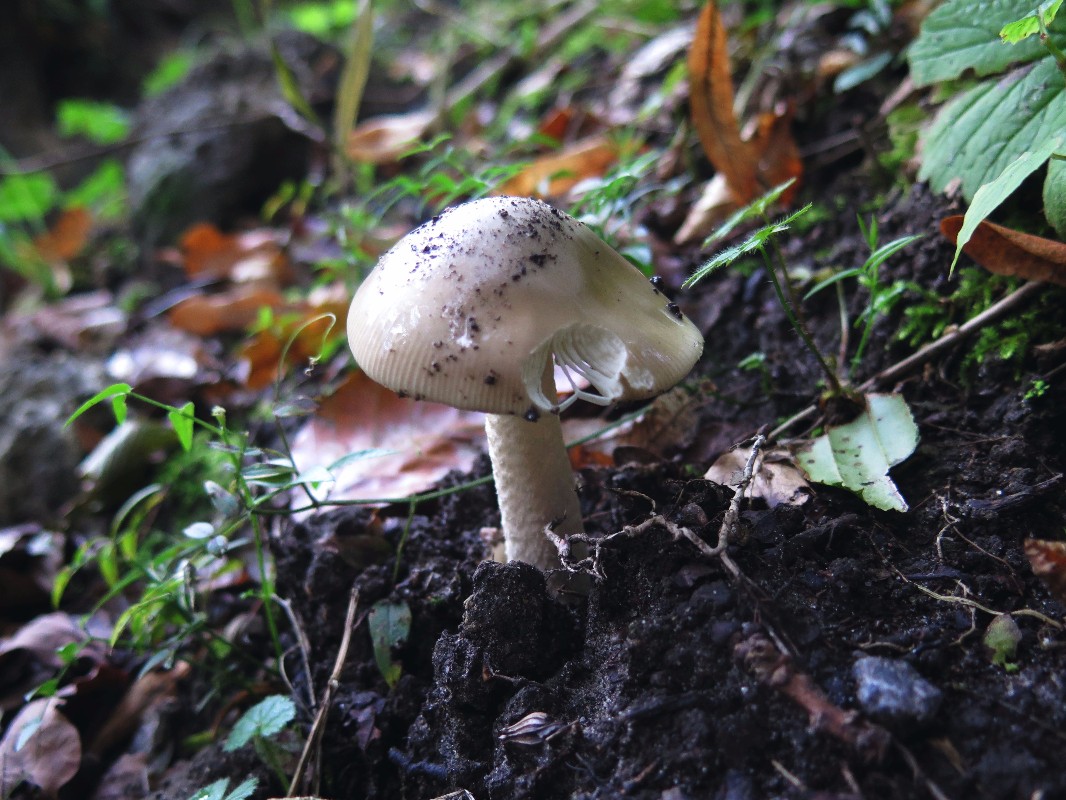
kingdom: Fungi
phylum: Basidiomycota
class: Agaricomycetes
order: Agaricales
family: Amanitaceae
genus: Amanita
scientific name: Amanita lividopallescens
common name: afblegende kam-fluesvamp
